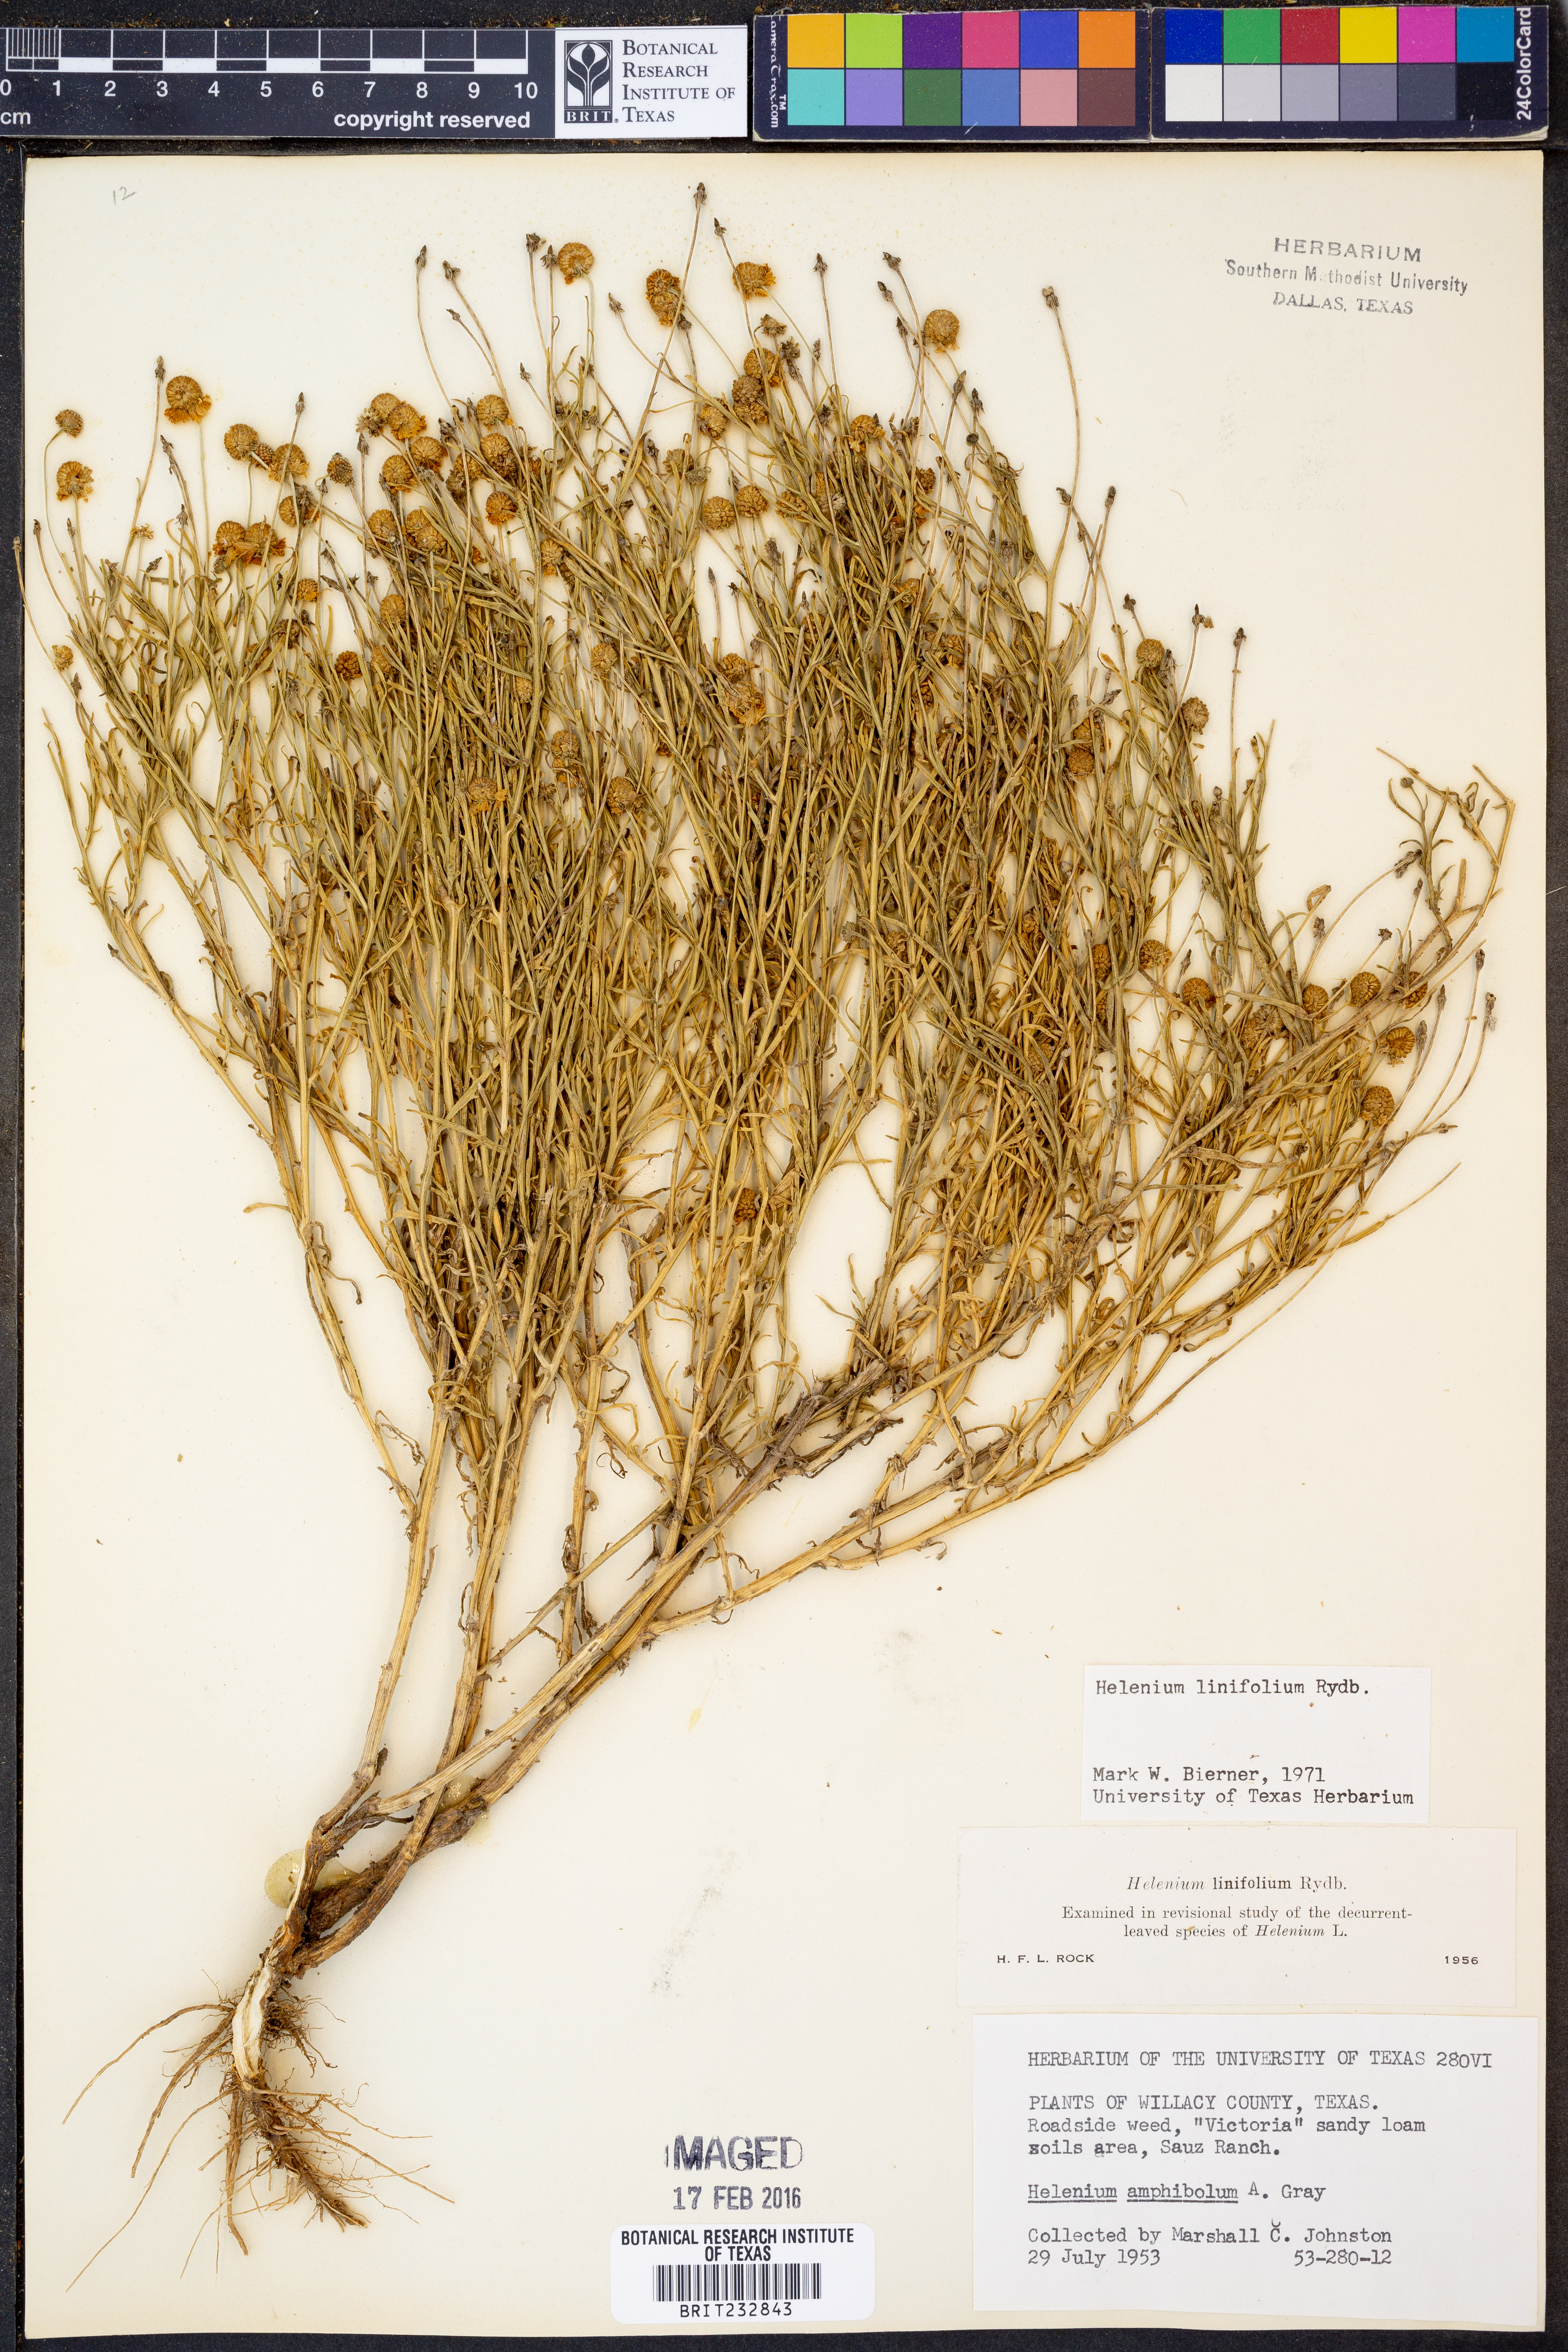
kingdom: Plantae
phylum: Tracheophyta
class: Magnoliopsida
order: Asterales
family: Asteraceae
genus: Helenium
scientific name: Helenium linifolium
